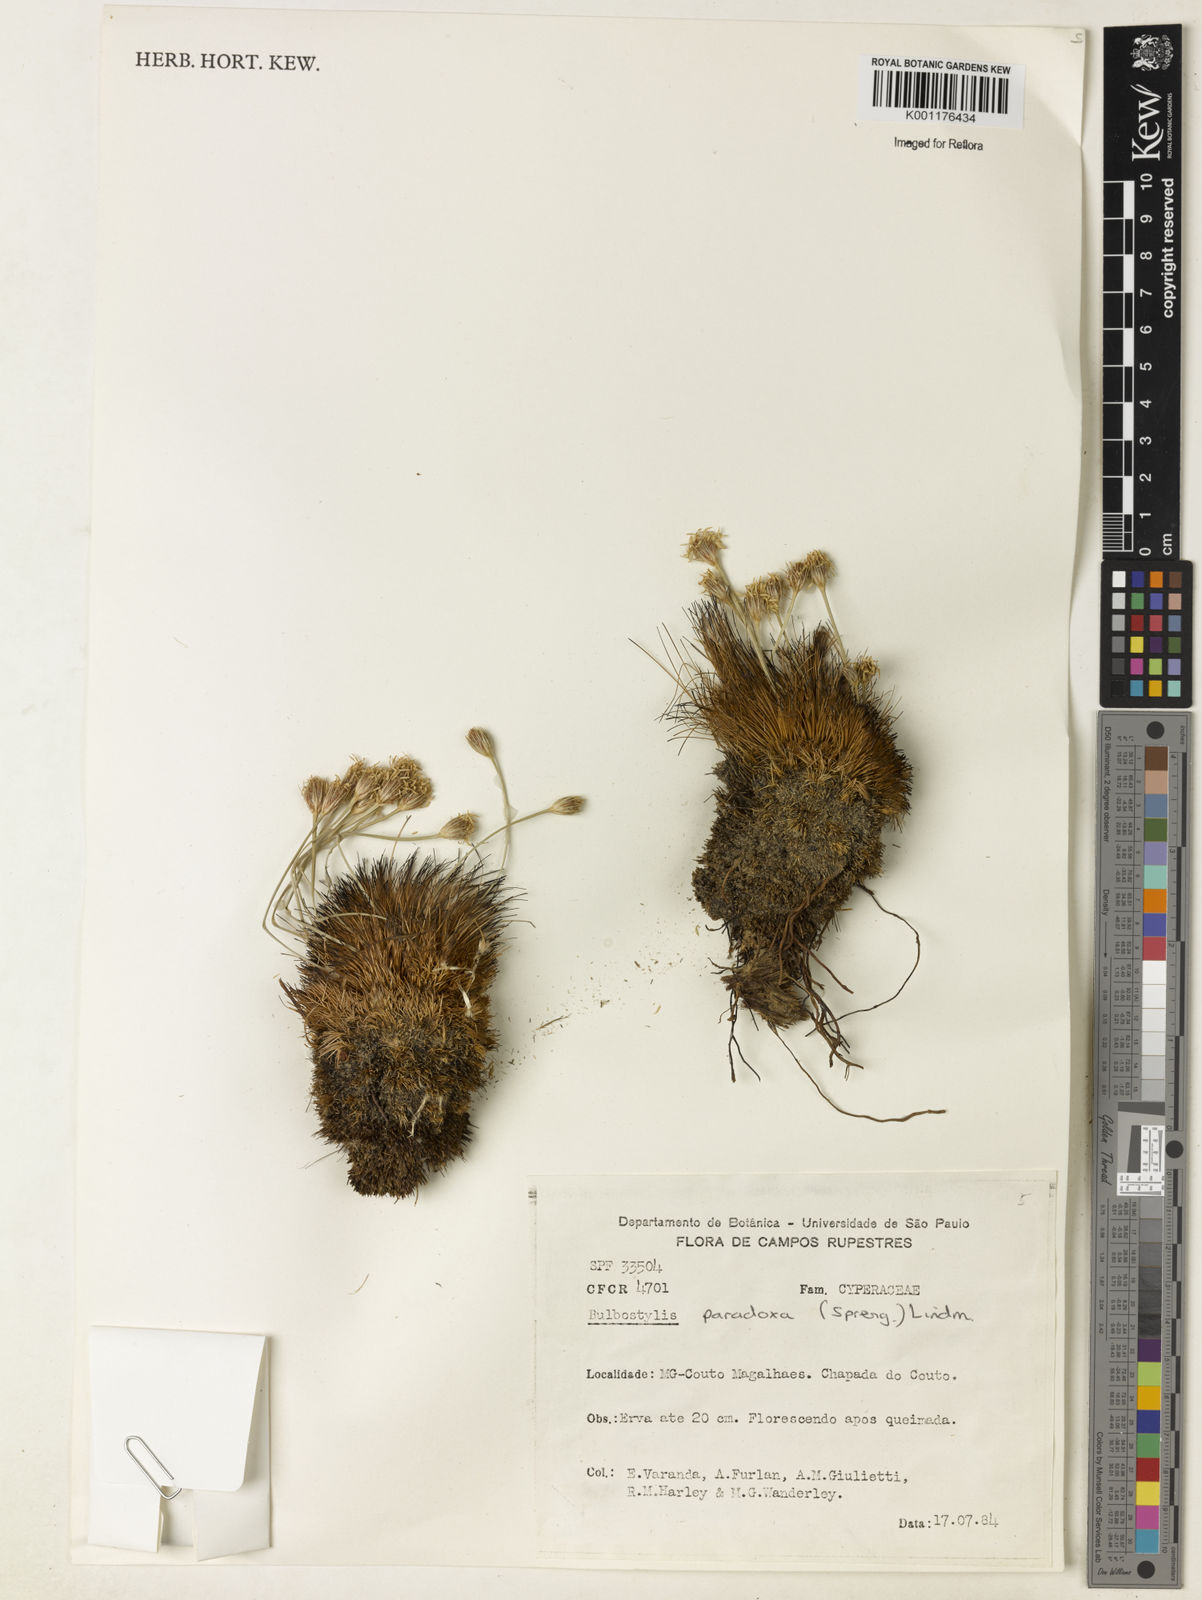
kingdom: Plantae
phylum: Tracheophyta
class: Liliopsida
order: Poales
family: Cyperaceae
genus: Bulbostylis
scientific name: Bulbostylis paradoxa
